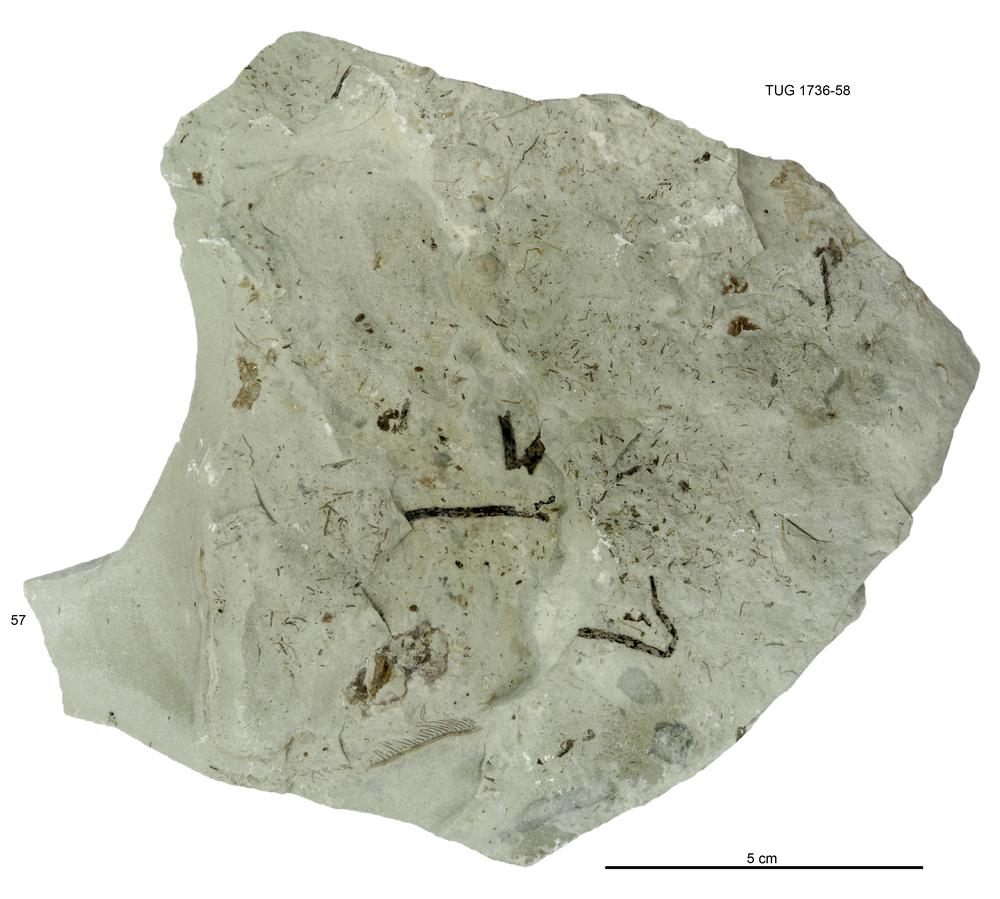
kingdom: Animalia
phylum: Echinodermata
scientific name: Echinodermata
